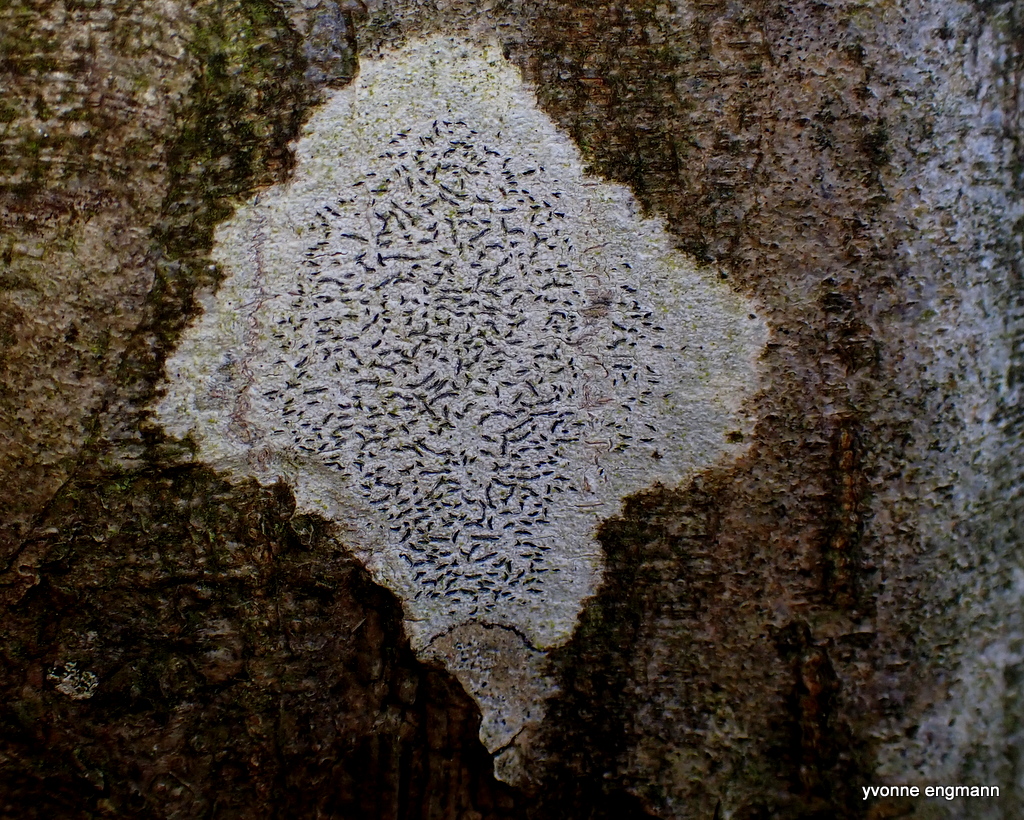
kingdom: Fungi
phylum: Ascomycota
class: Lecanoromycetes
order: Ostropales
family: Graphidaceae
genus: Graphis
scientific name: Graphis scripta
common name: almindelig skriftlav
